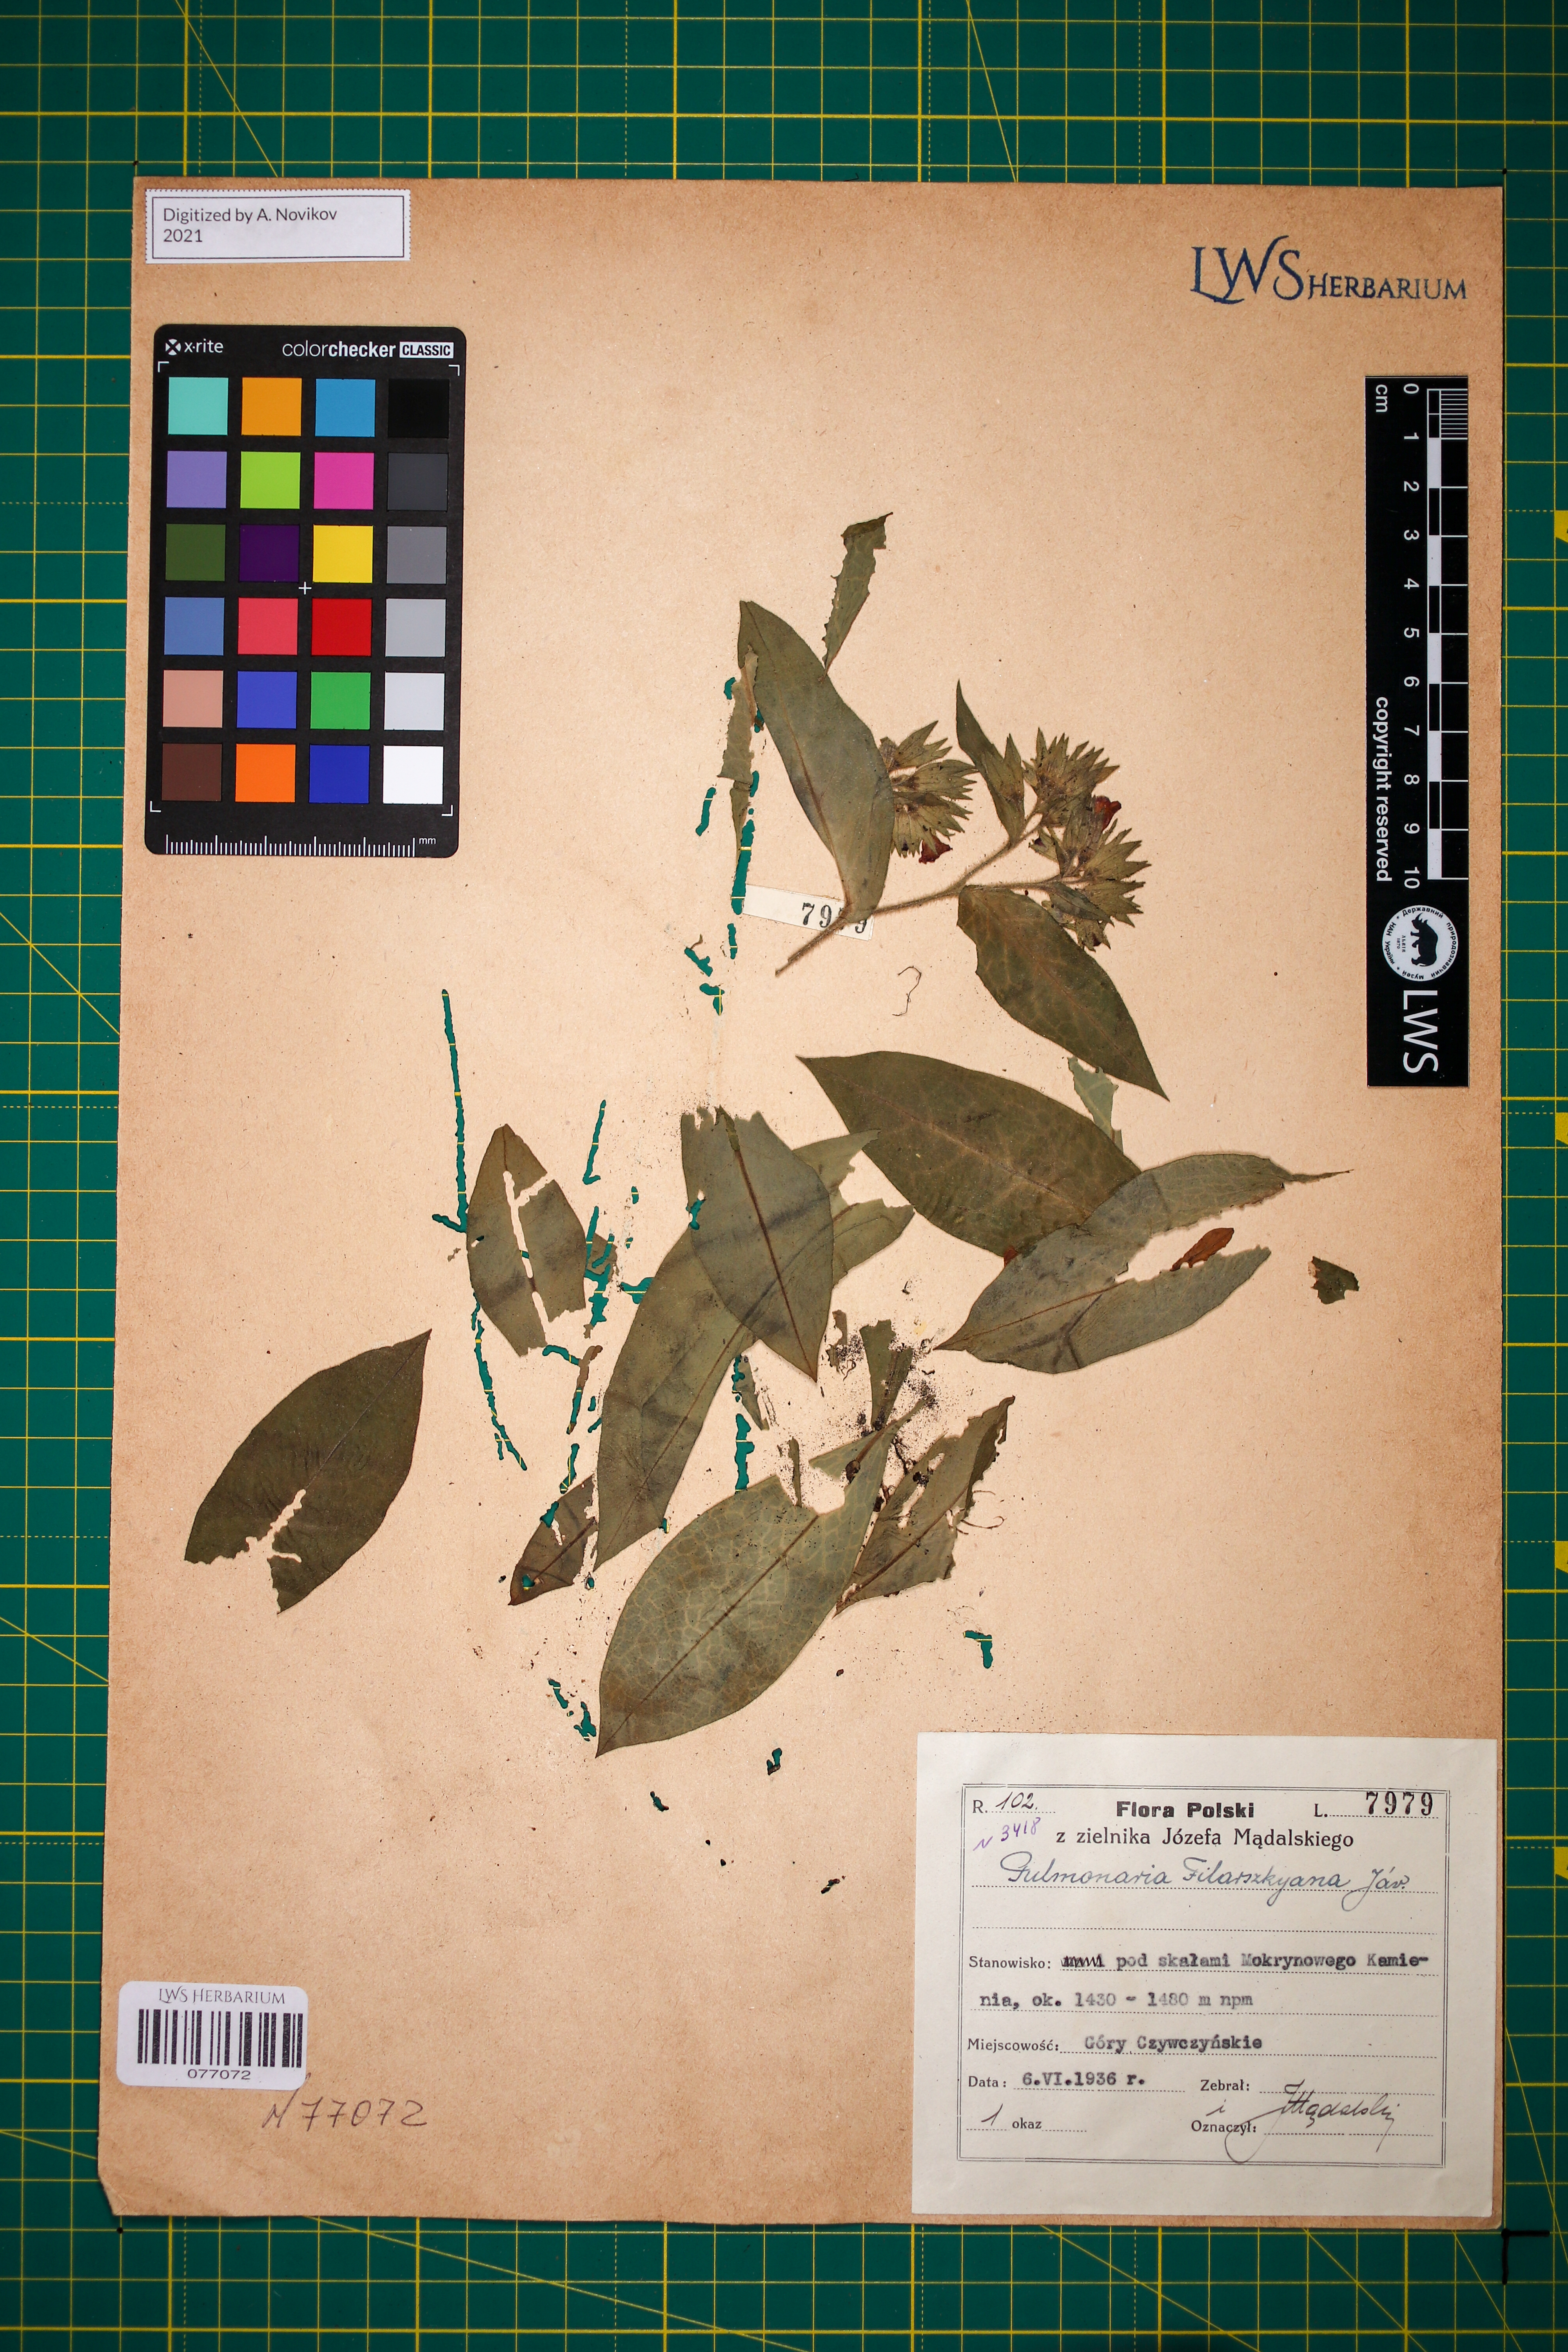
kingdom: Plantae
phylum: Tracheophyta
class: Magnoliopsida
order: Boraginales
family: Boraginaceae
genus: Pulmonaria
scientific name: Pulmonaria filarszkyana
